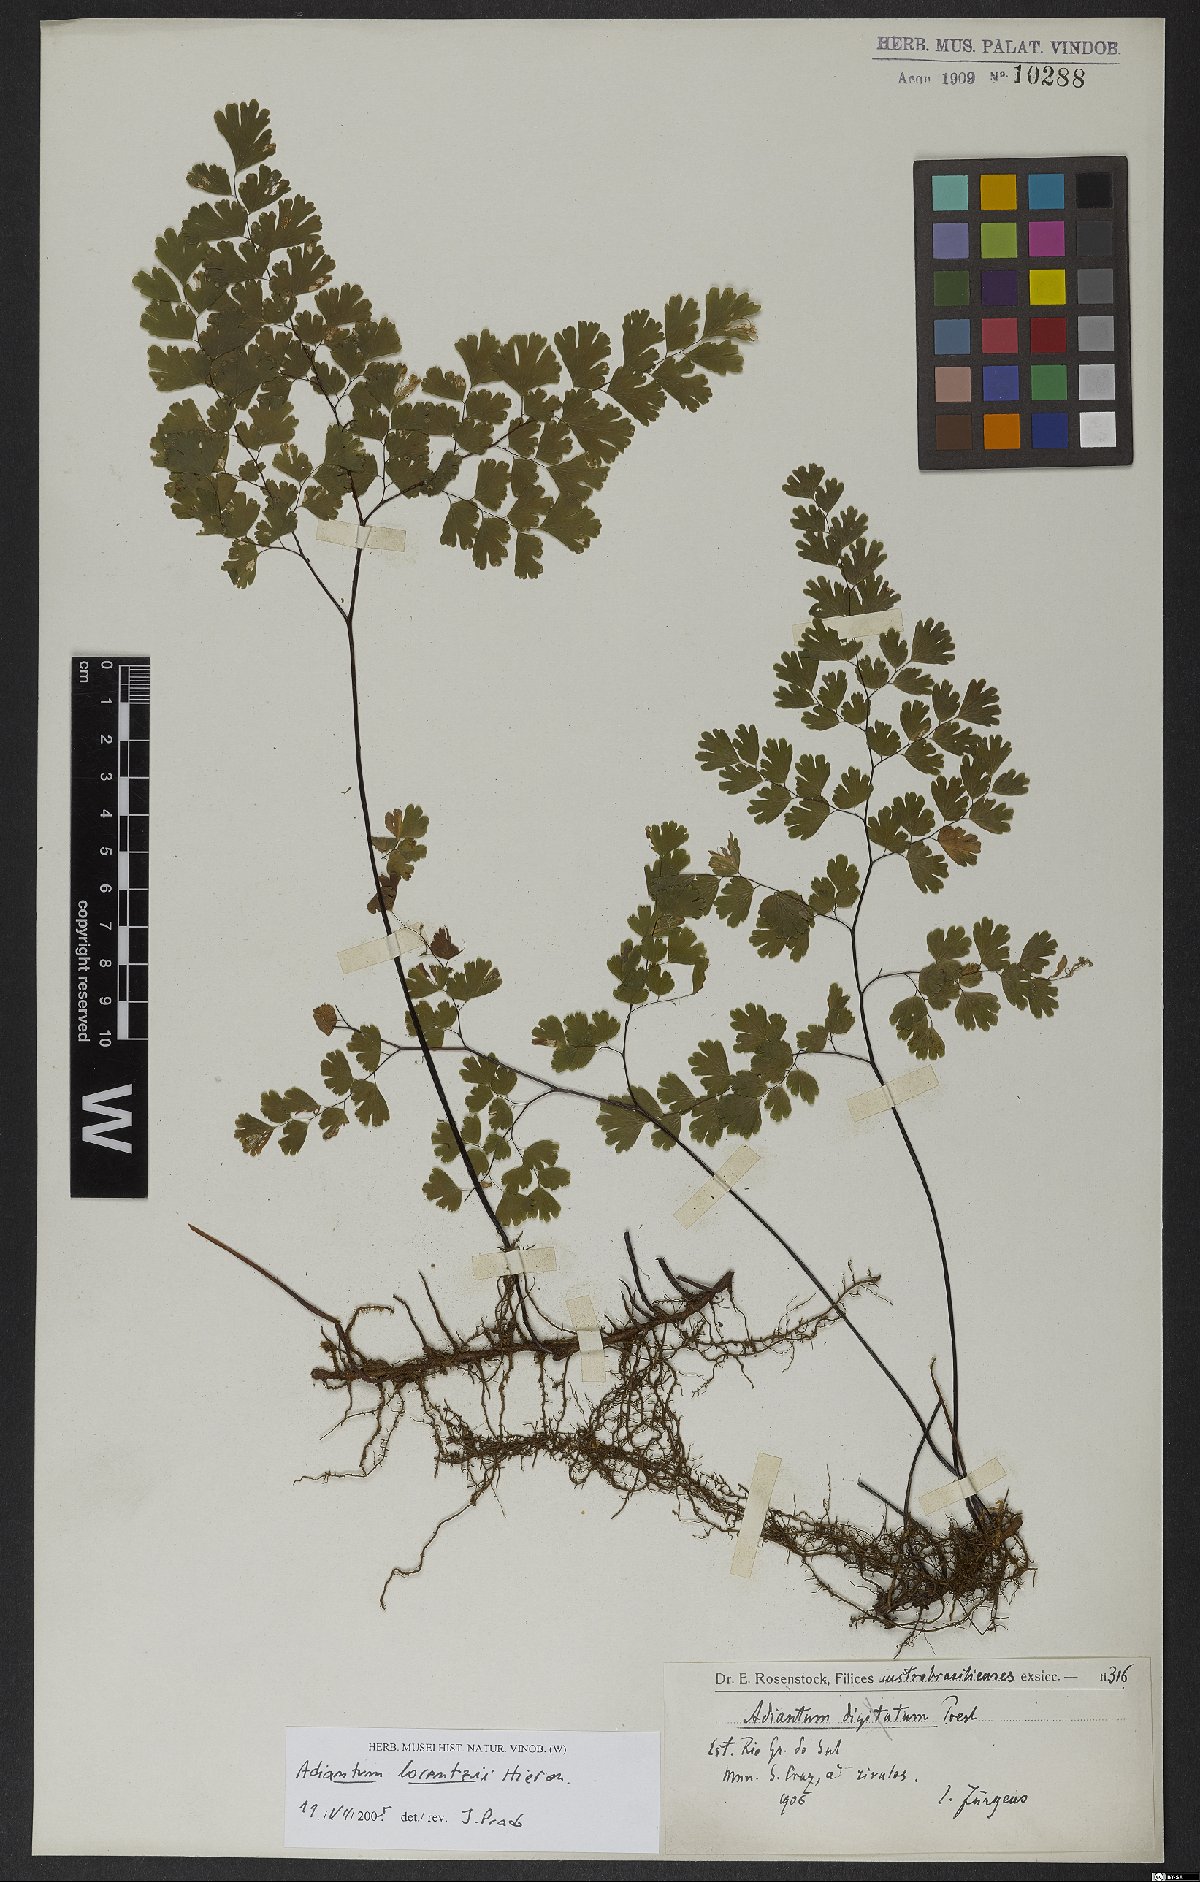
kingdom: Plantae
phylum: Tracheophyta
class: Polypodiopsida
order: Polypodiales
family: Pteridaceae
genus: Adiantum
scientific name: Adiantum lorentzii
